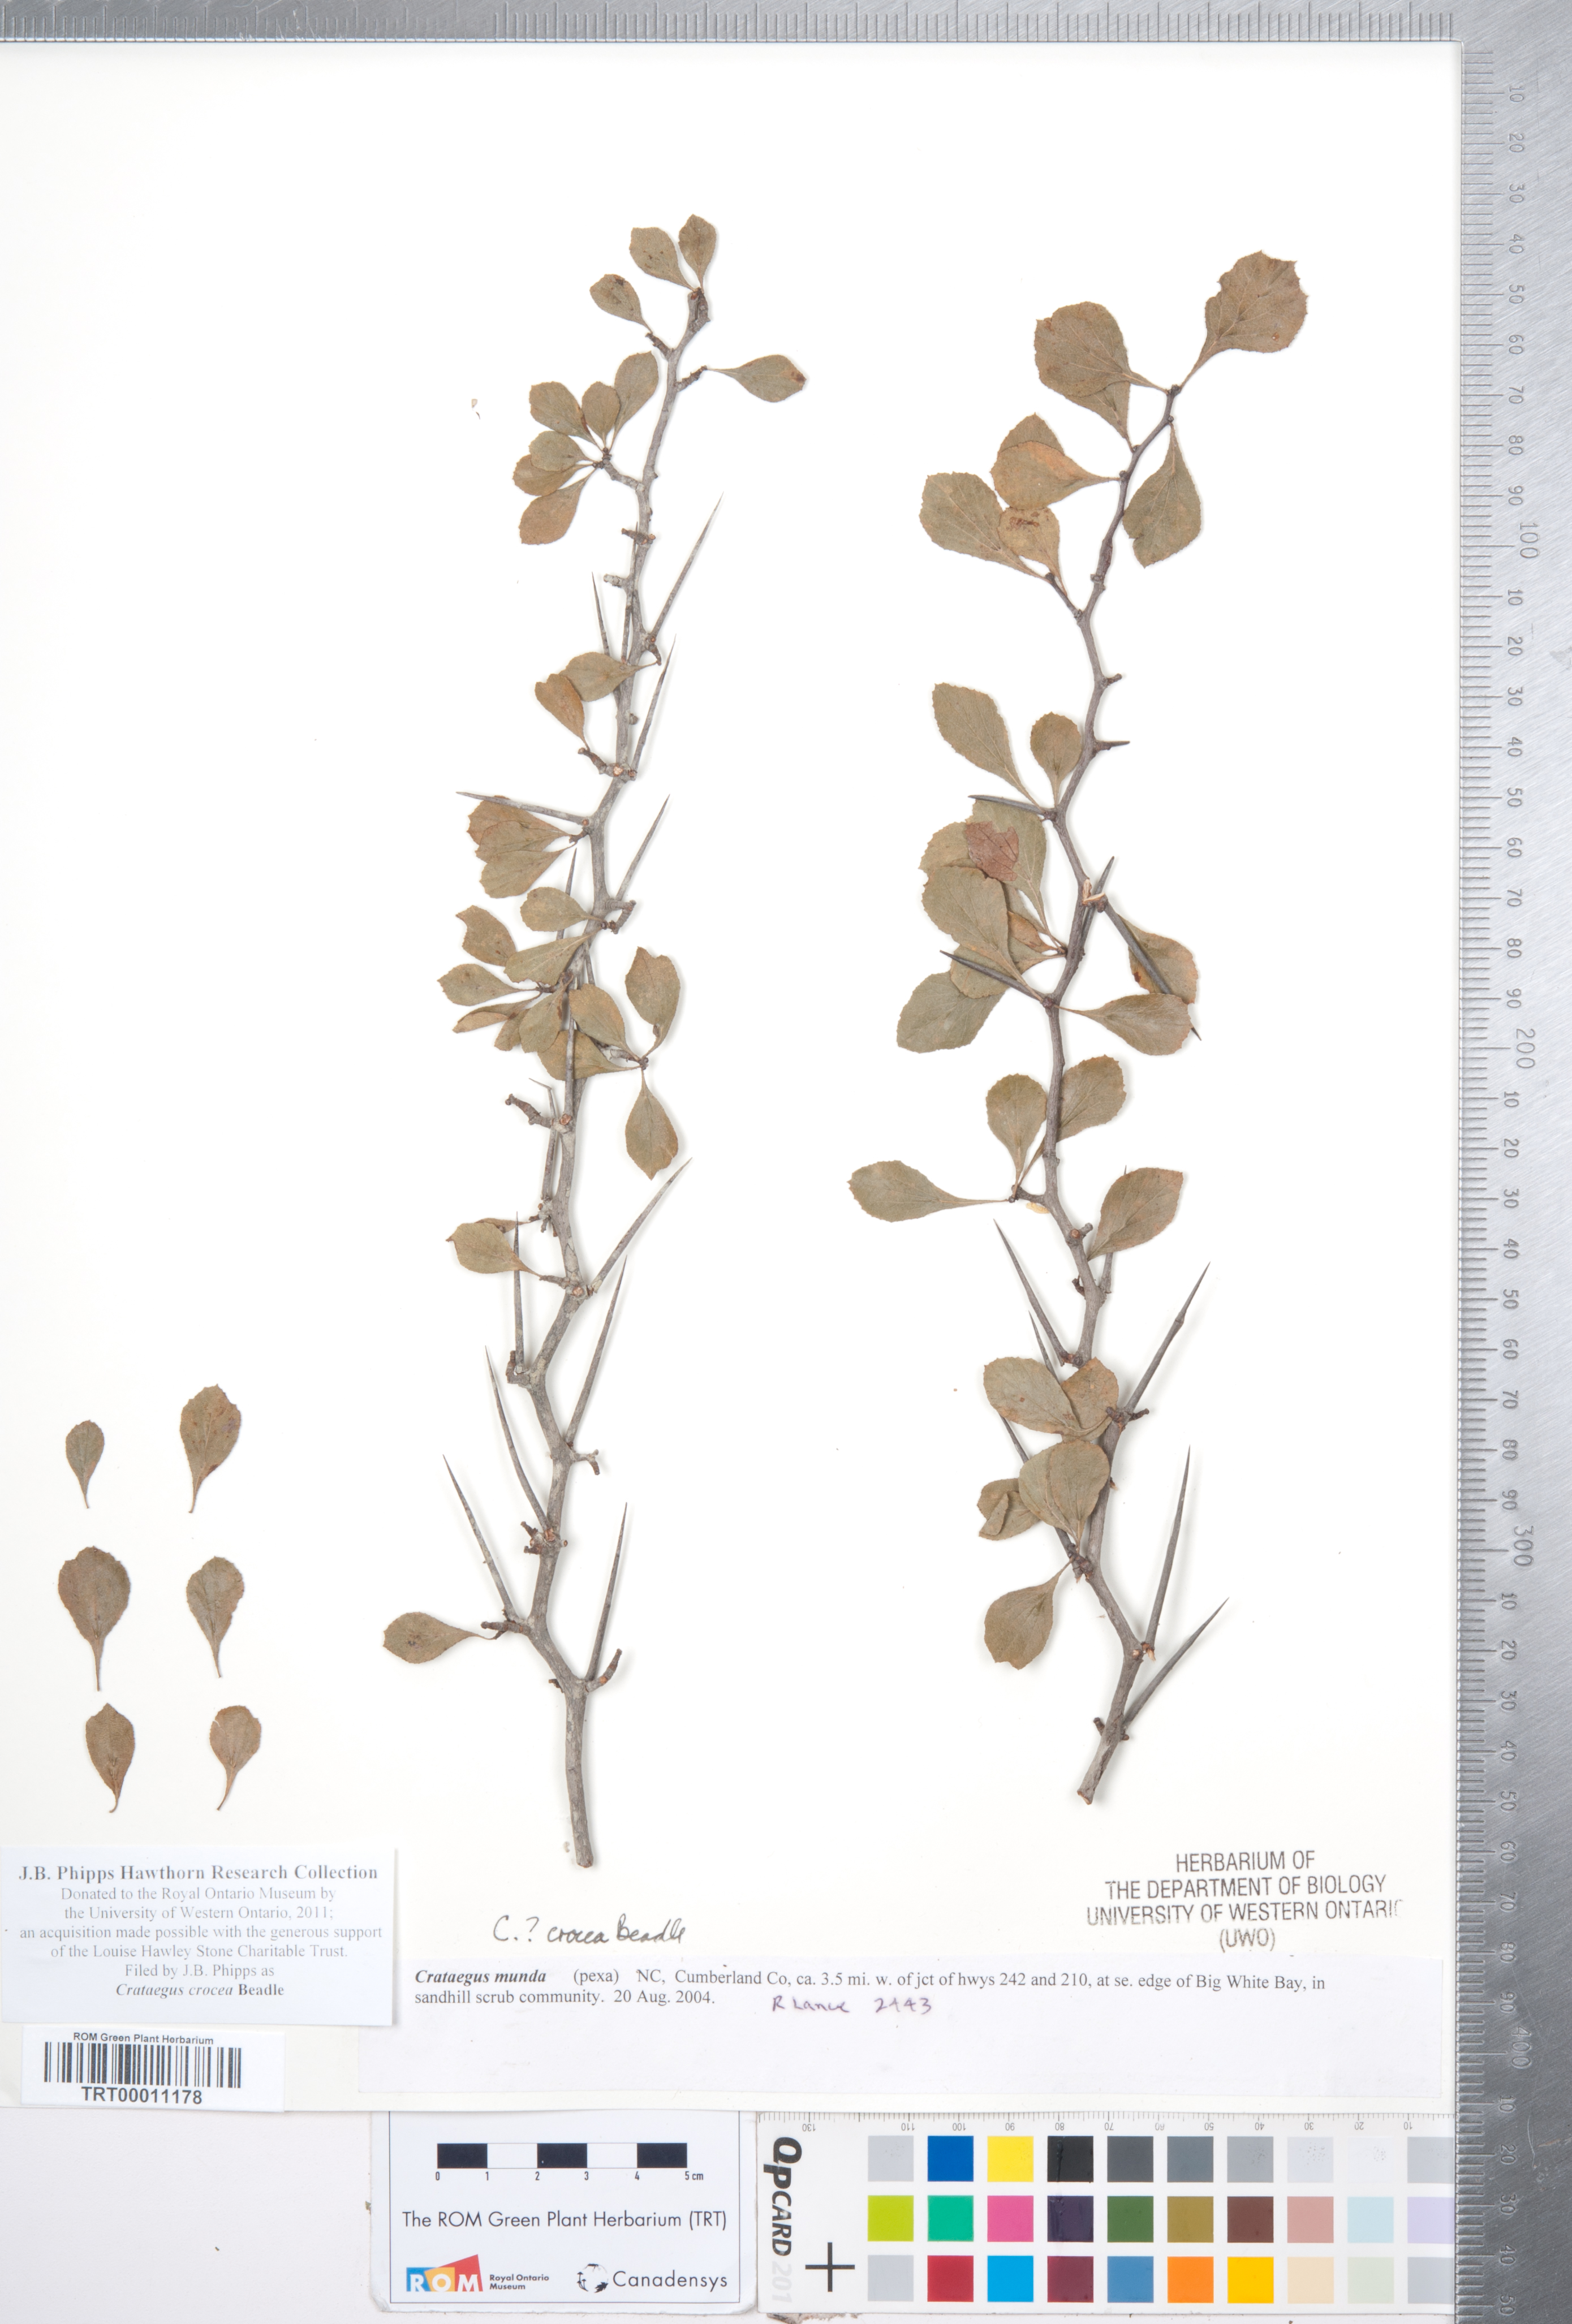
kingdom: Plantae
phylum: Tracheophyta
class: Magnoliopsida
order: Rosales
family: Rosaceae
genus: Crataegus
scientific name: Crataegus lassa
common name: Florida hawthorn
